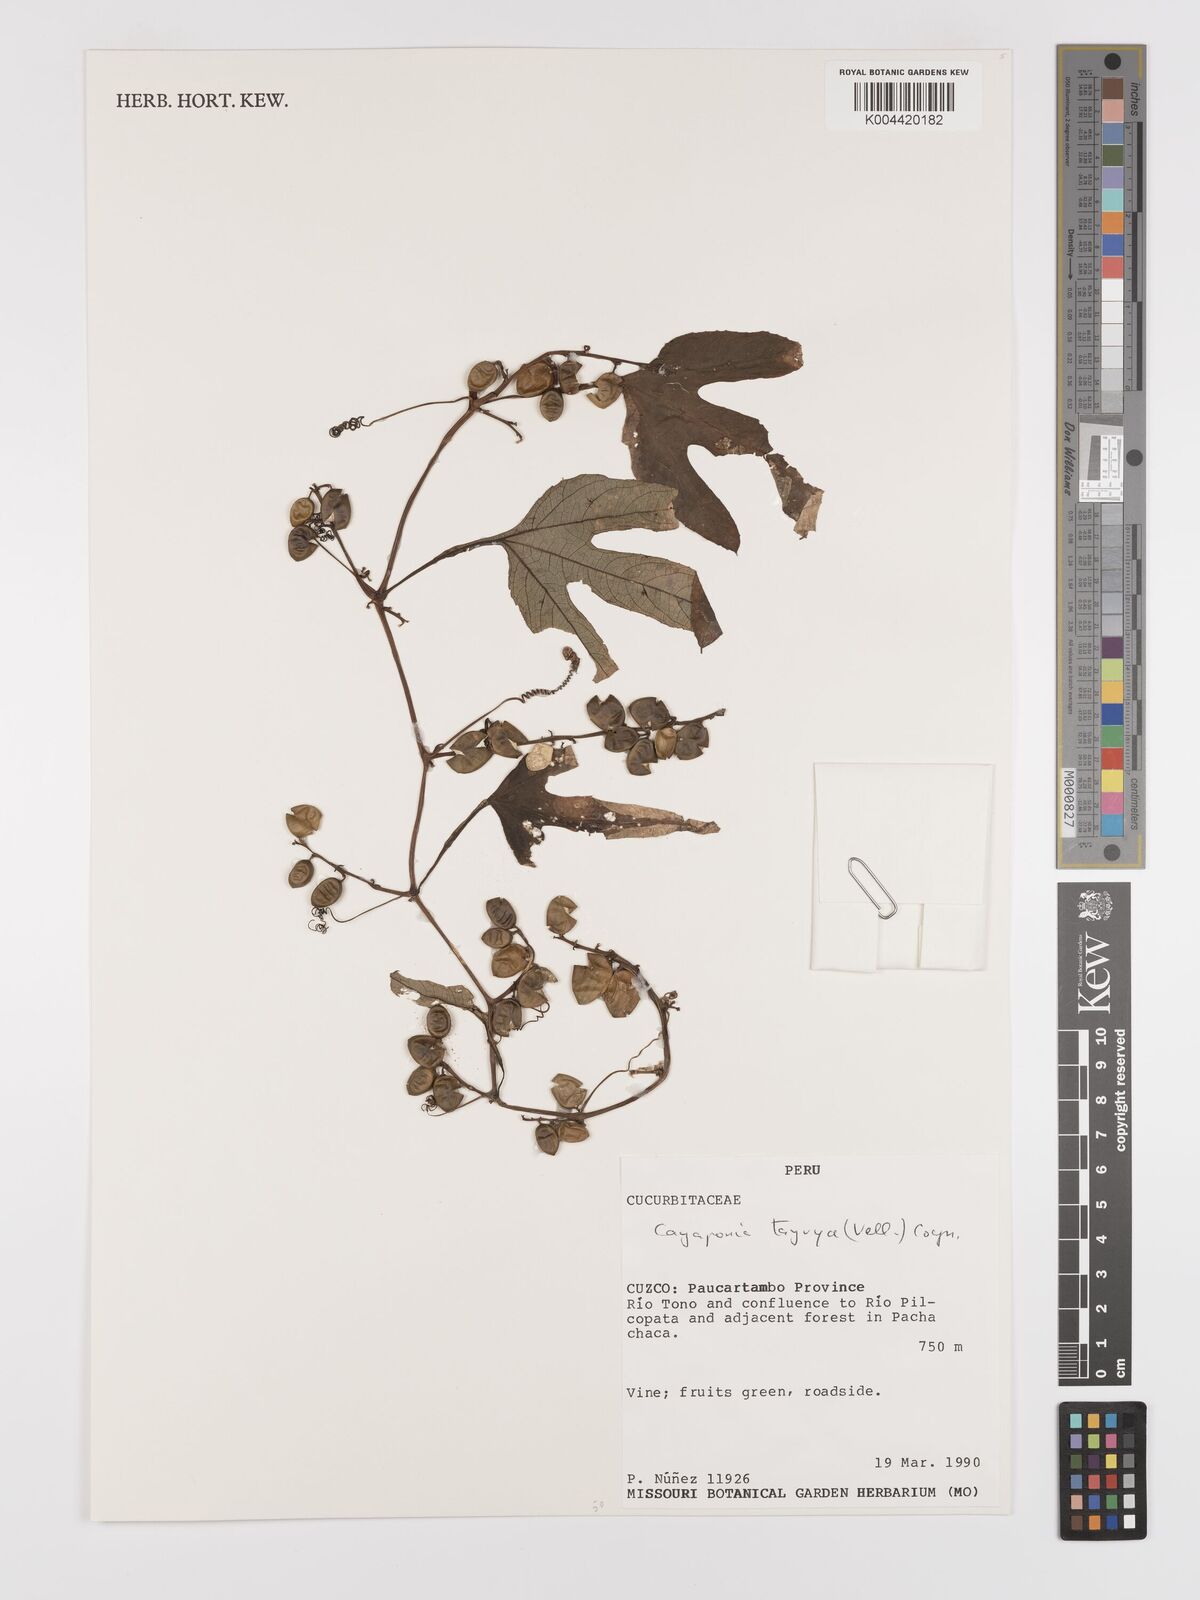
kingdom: Plantae
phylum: Tracheophyta
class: Magnoliopsida
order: Cucurbitales
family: Cucurbitaceae
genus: Cayaponia
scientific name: Cayaponia tayuya
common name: Tayuya
